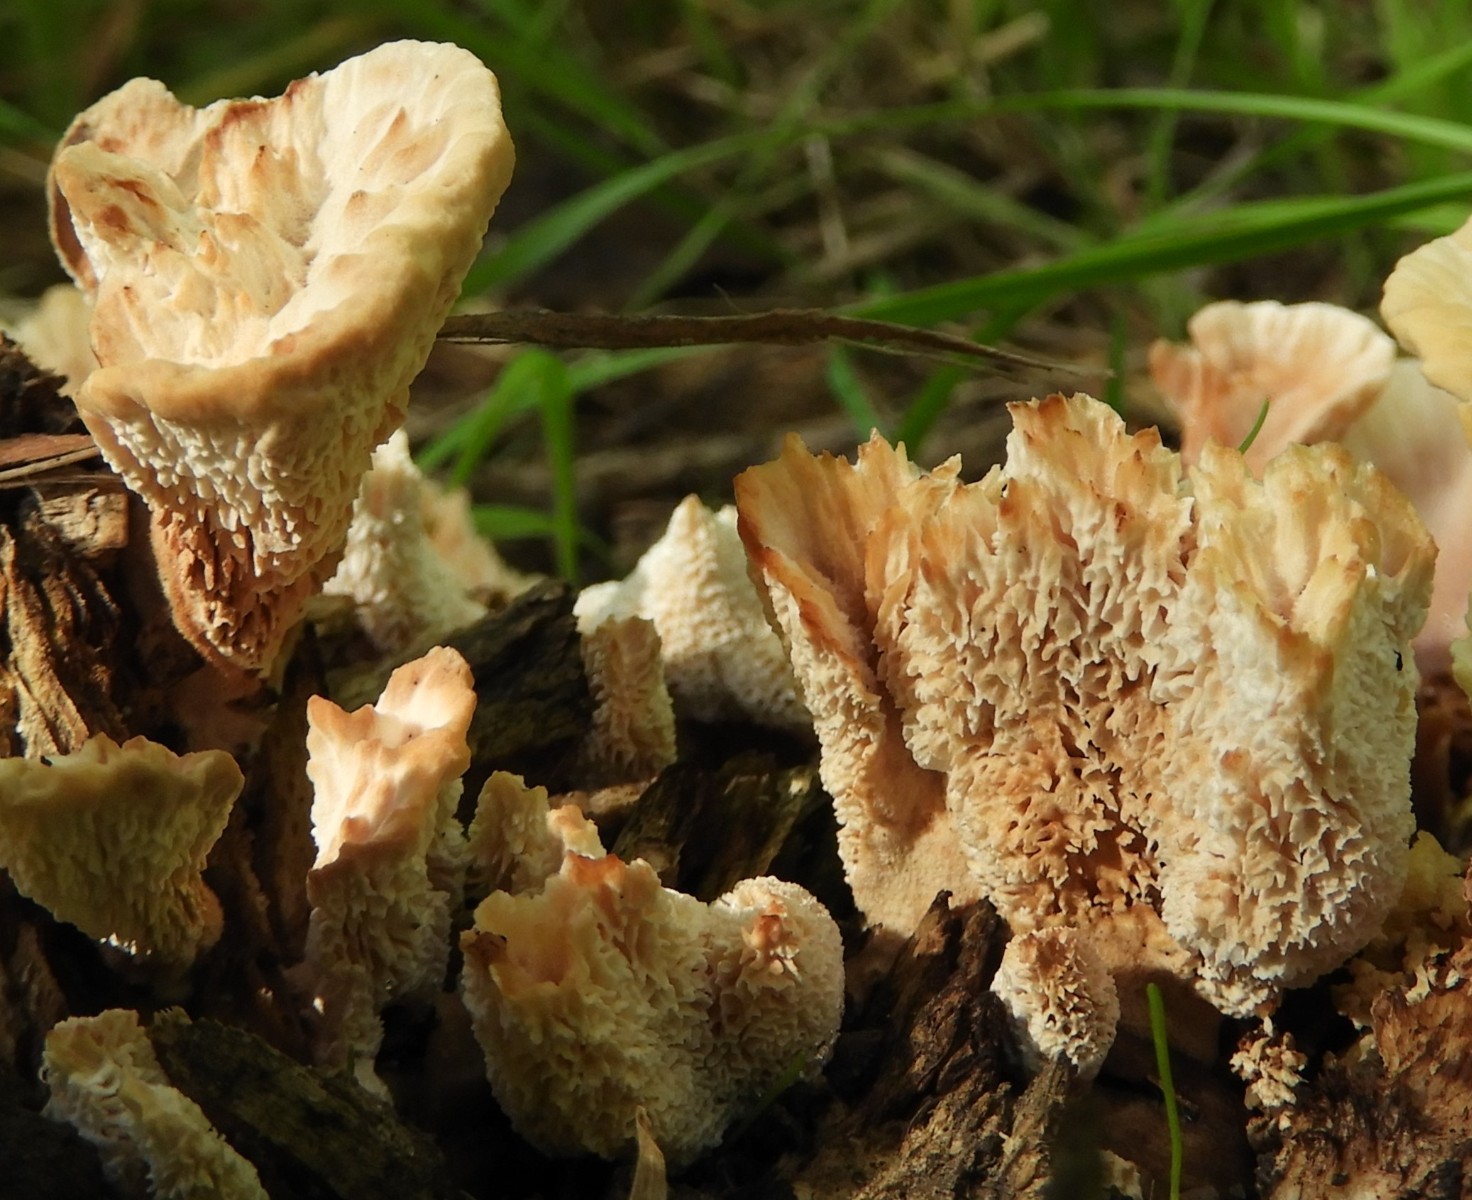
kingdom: Fungi
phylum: Basidiomycota
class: Agaricomycetes
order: Polyporales
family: Podoscyphaceae
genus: Abortiporus
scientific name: Abortiporus biennis
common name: rødmende pjalteporesvamp
